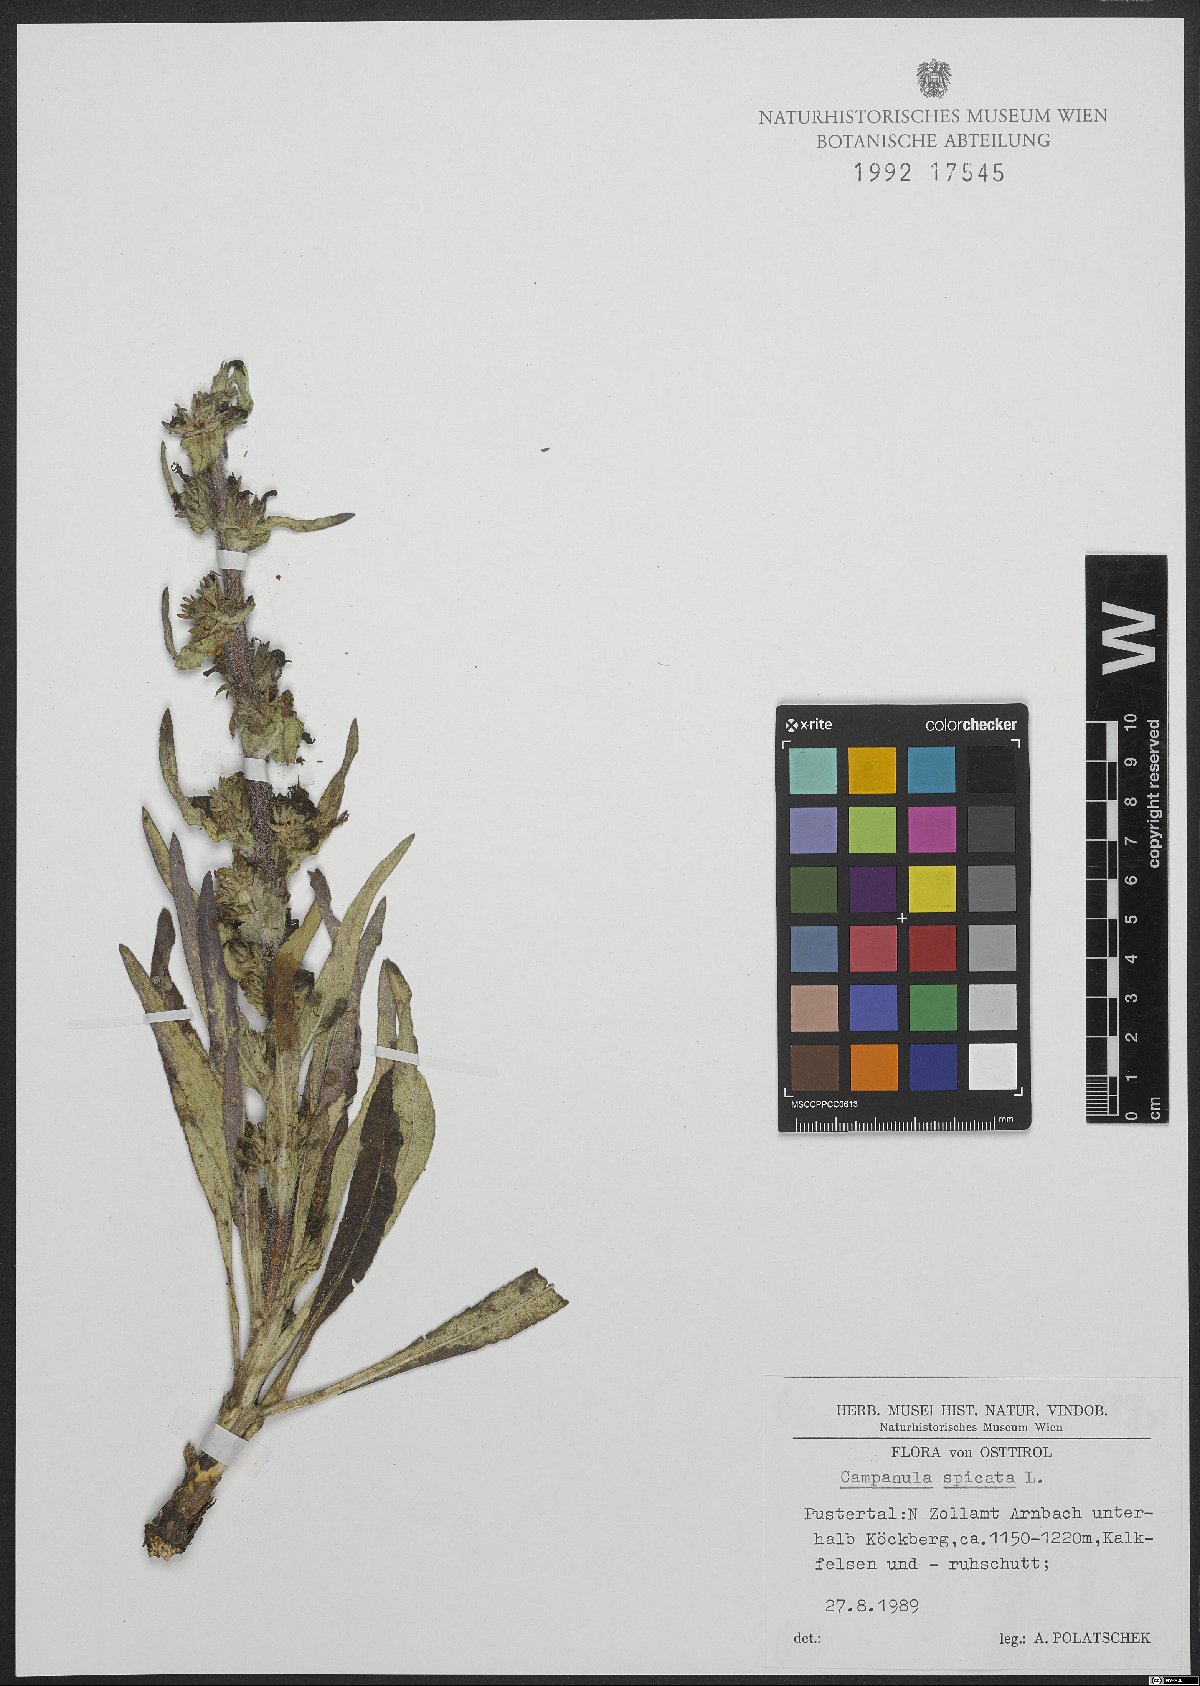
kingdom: Plantae
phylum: Tracheophyta
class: Magnoliopsida
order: Asterales
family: Campanulaceae
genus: Campanula
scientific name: Campanula spicata
